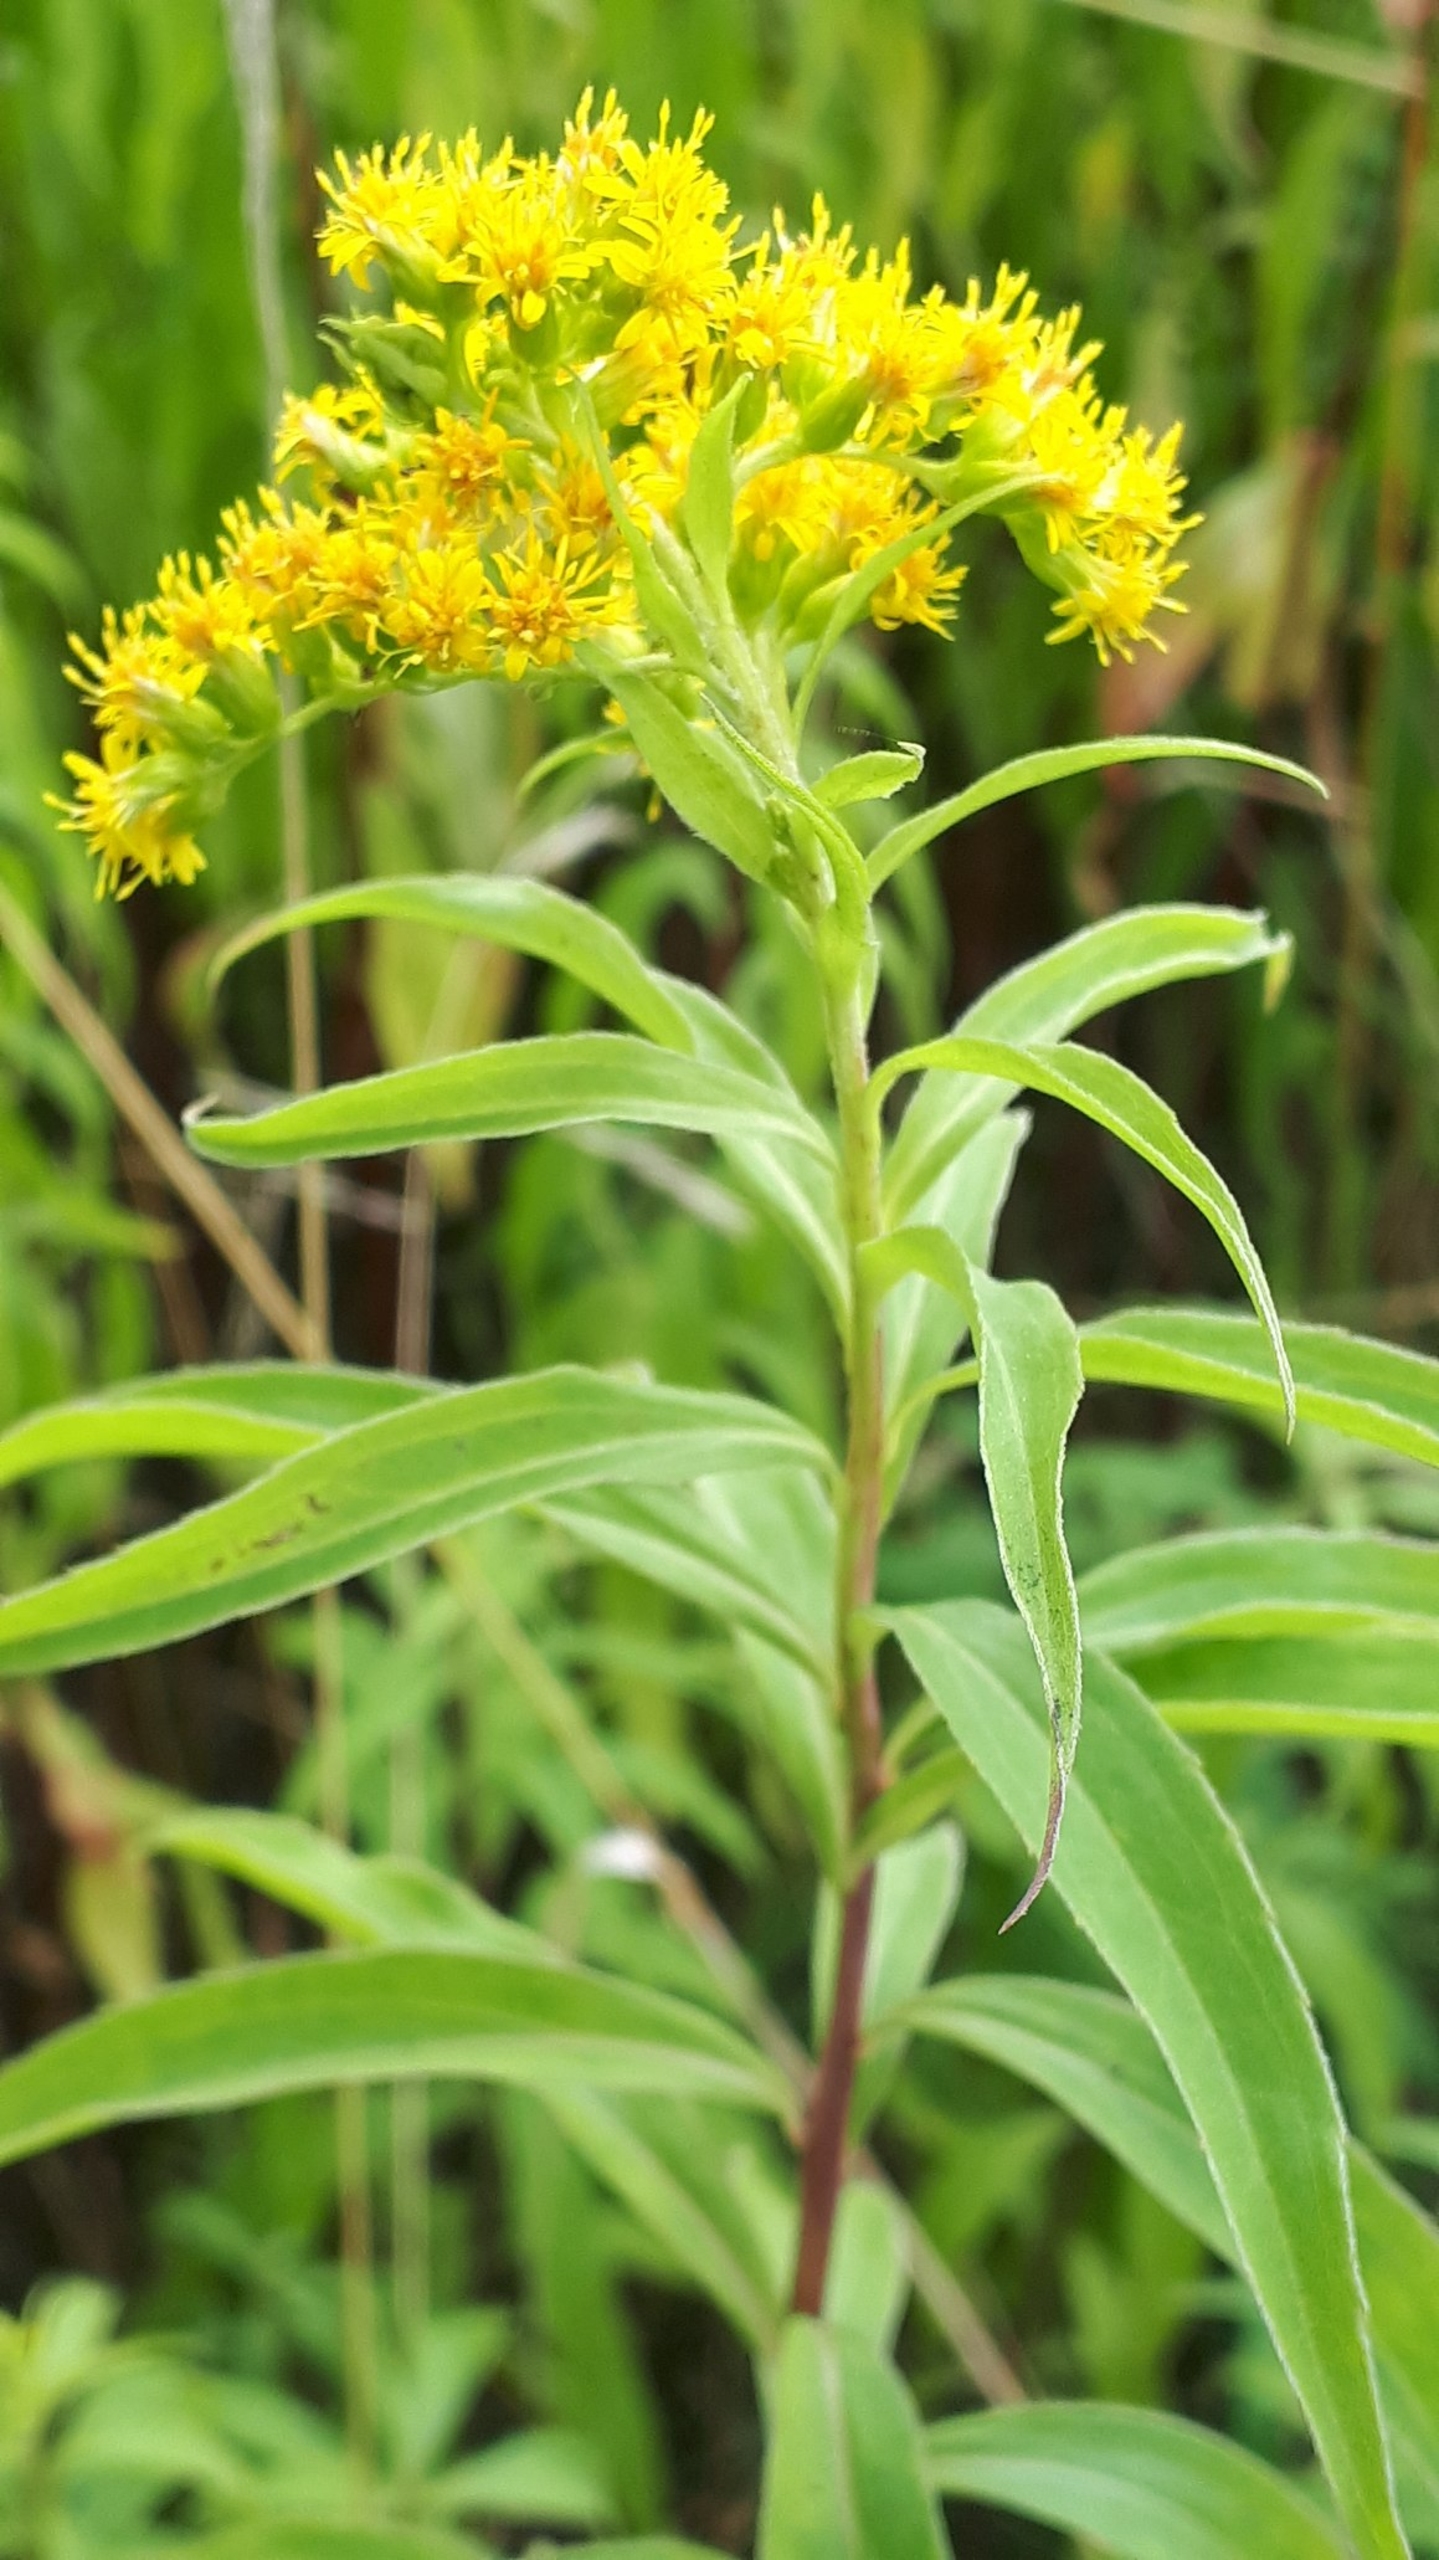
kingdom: Plantae
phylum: Tracheophyta
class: Magnoliopsida
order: Asterales
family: Asteraceae
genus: Solidago
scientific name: Solidago gigantea
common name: Sildig gyldenris
